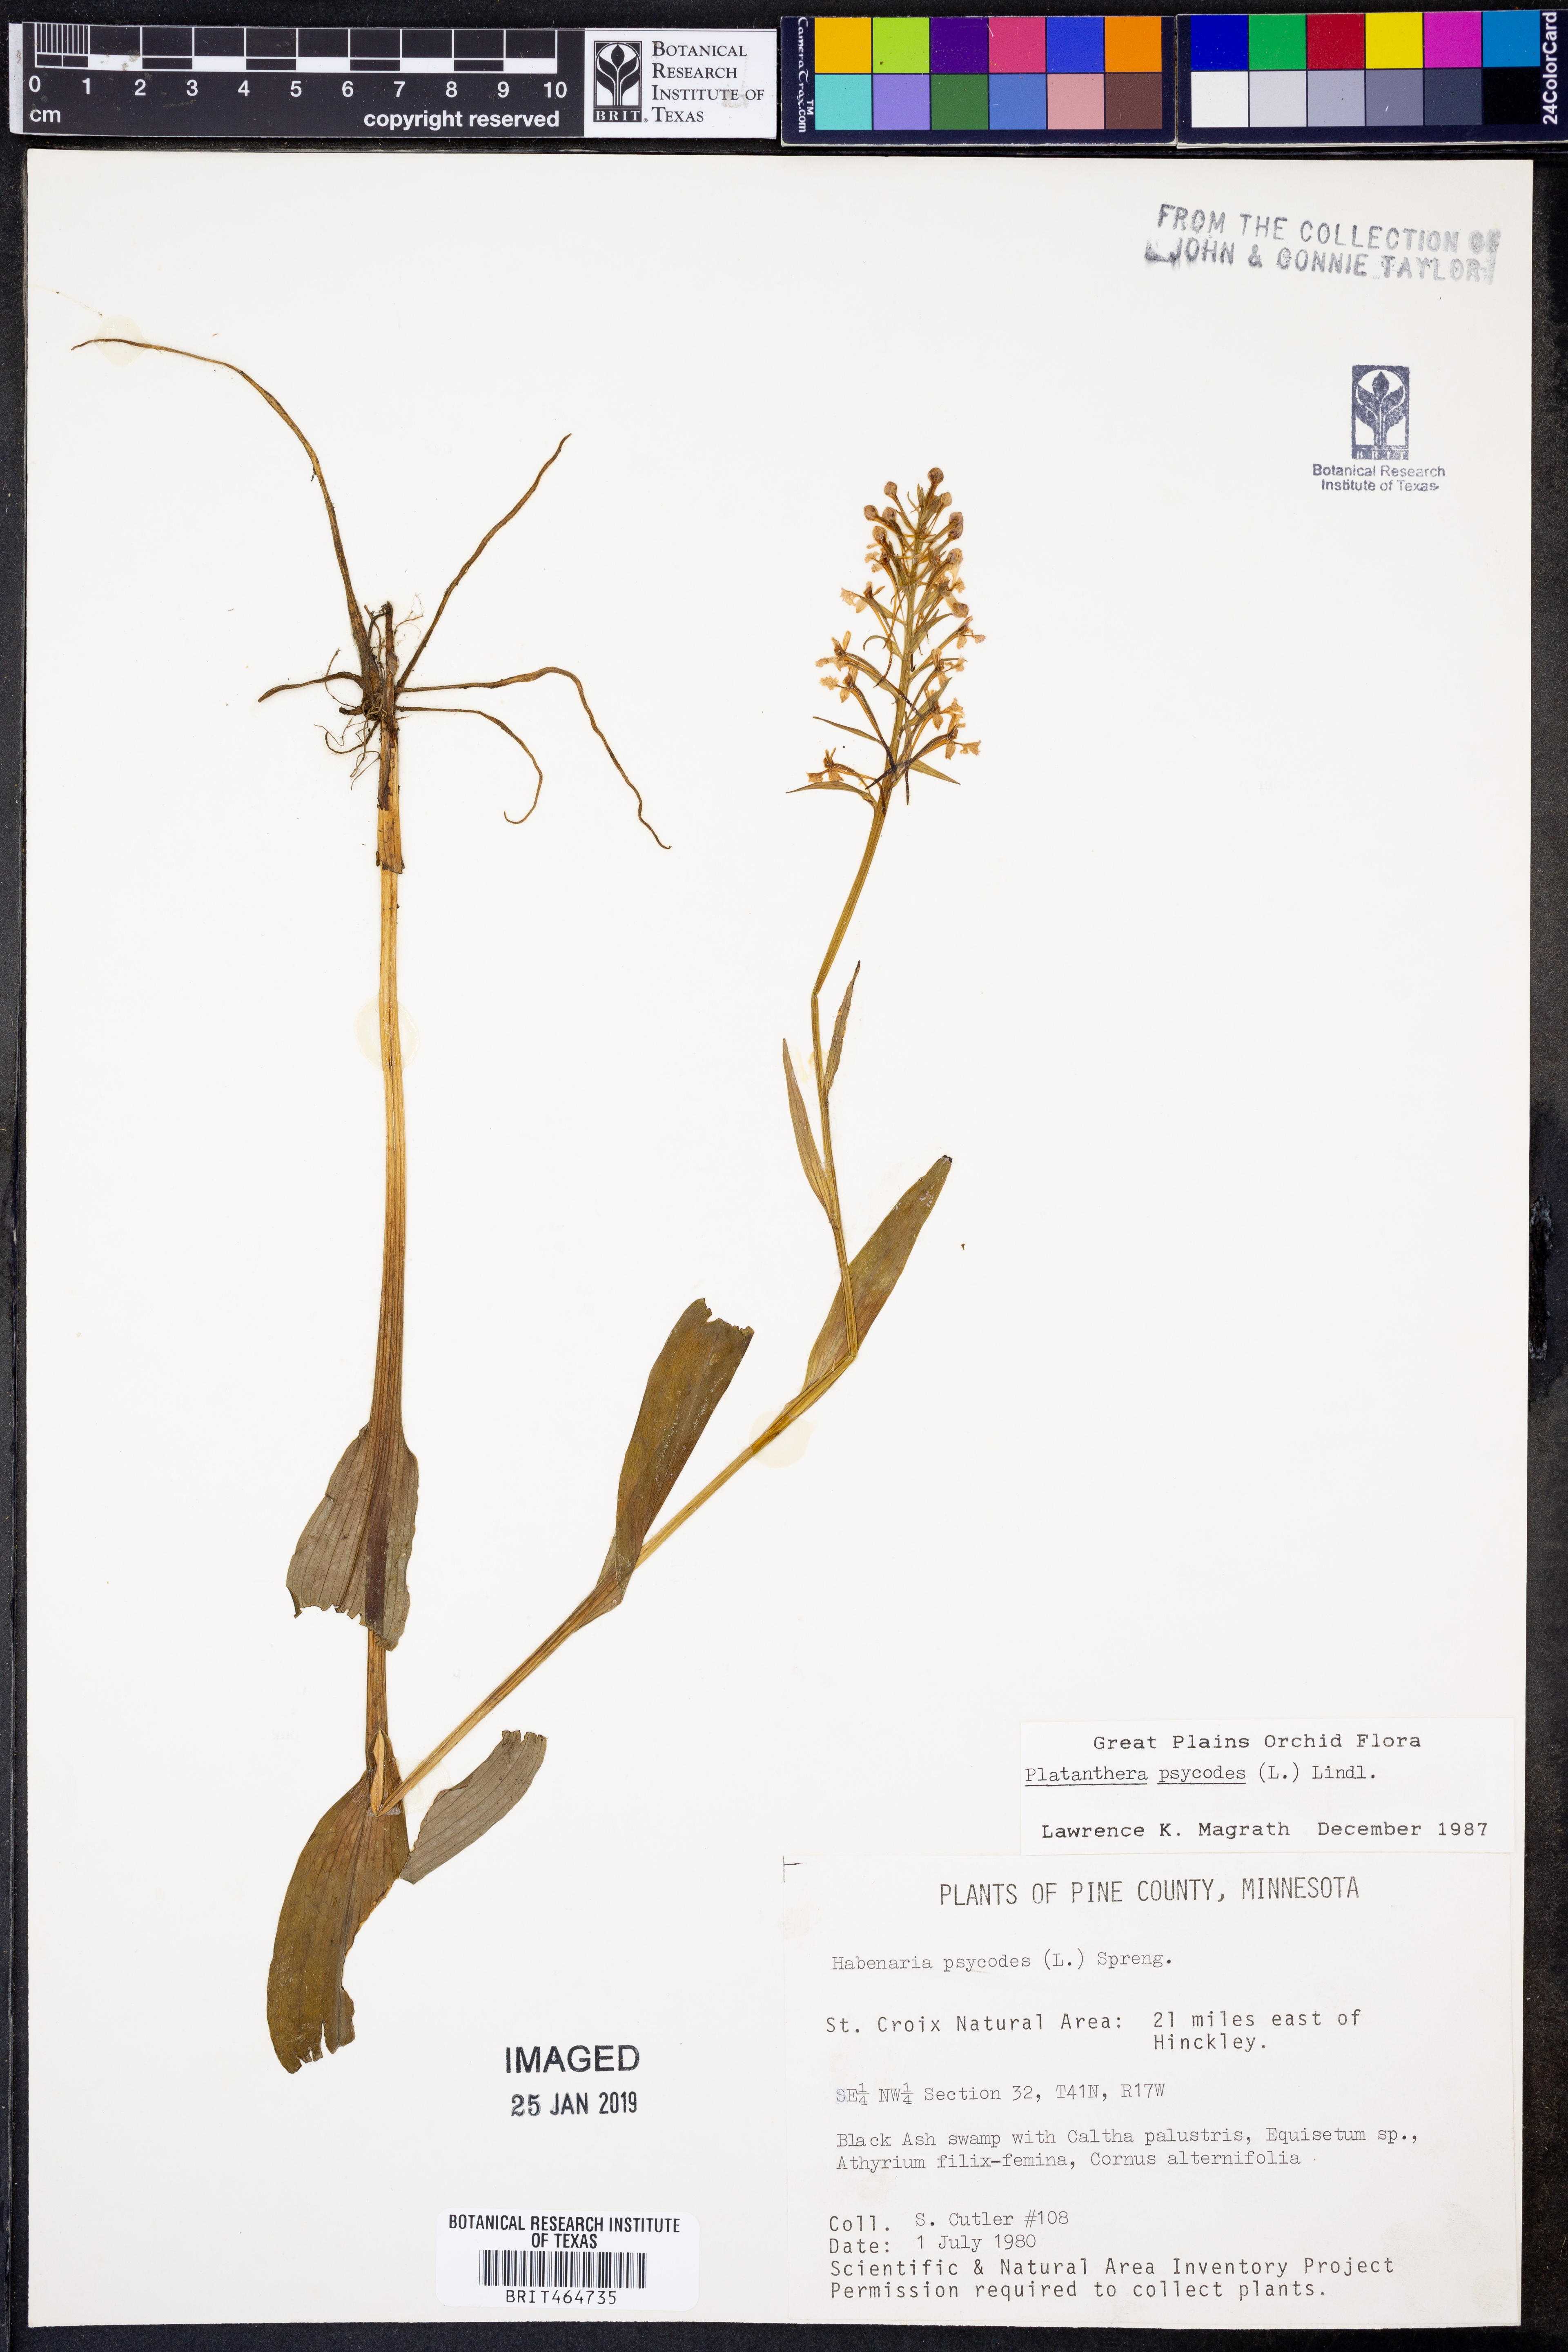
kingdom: Plantae
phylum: Tracheophyta
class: Liliopsida
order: Asparagales
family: Orchidaceae
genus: Platanthera
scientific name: Platanthera psycodes
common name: Lesser purple fringed orchid
